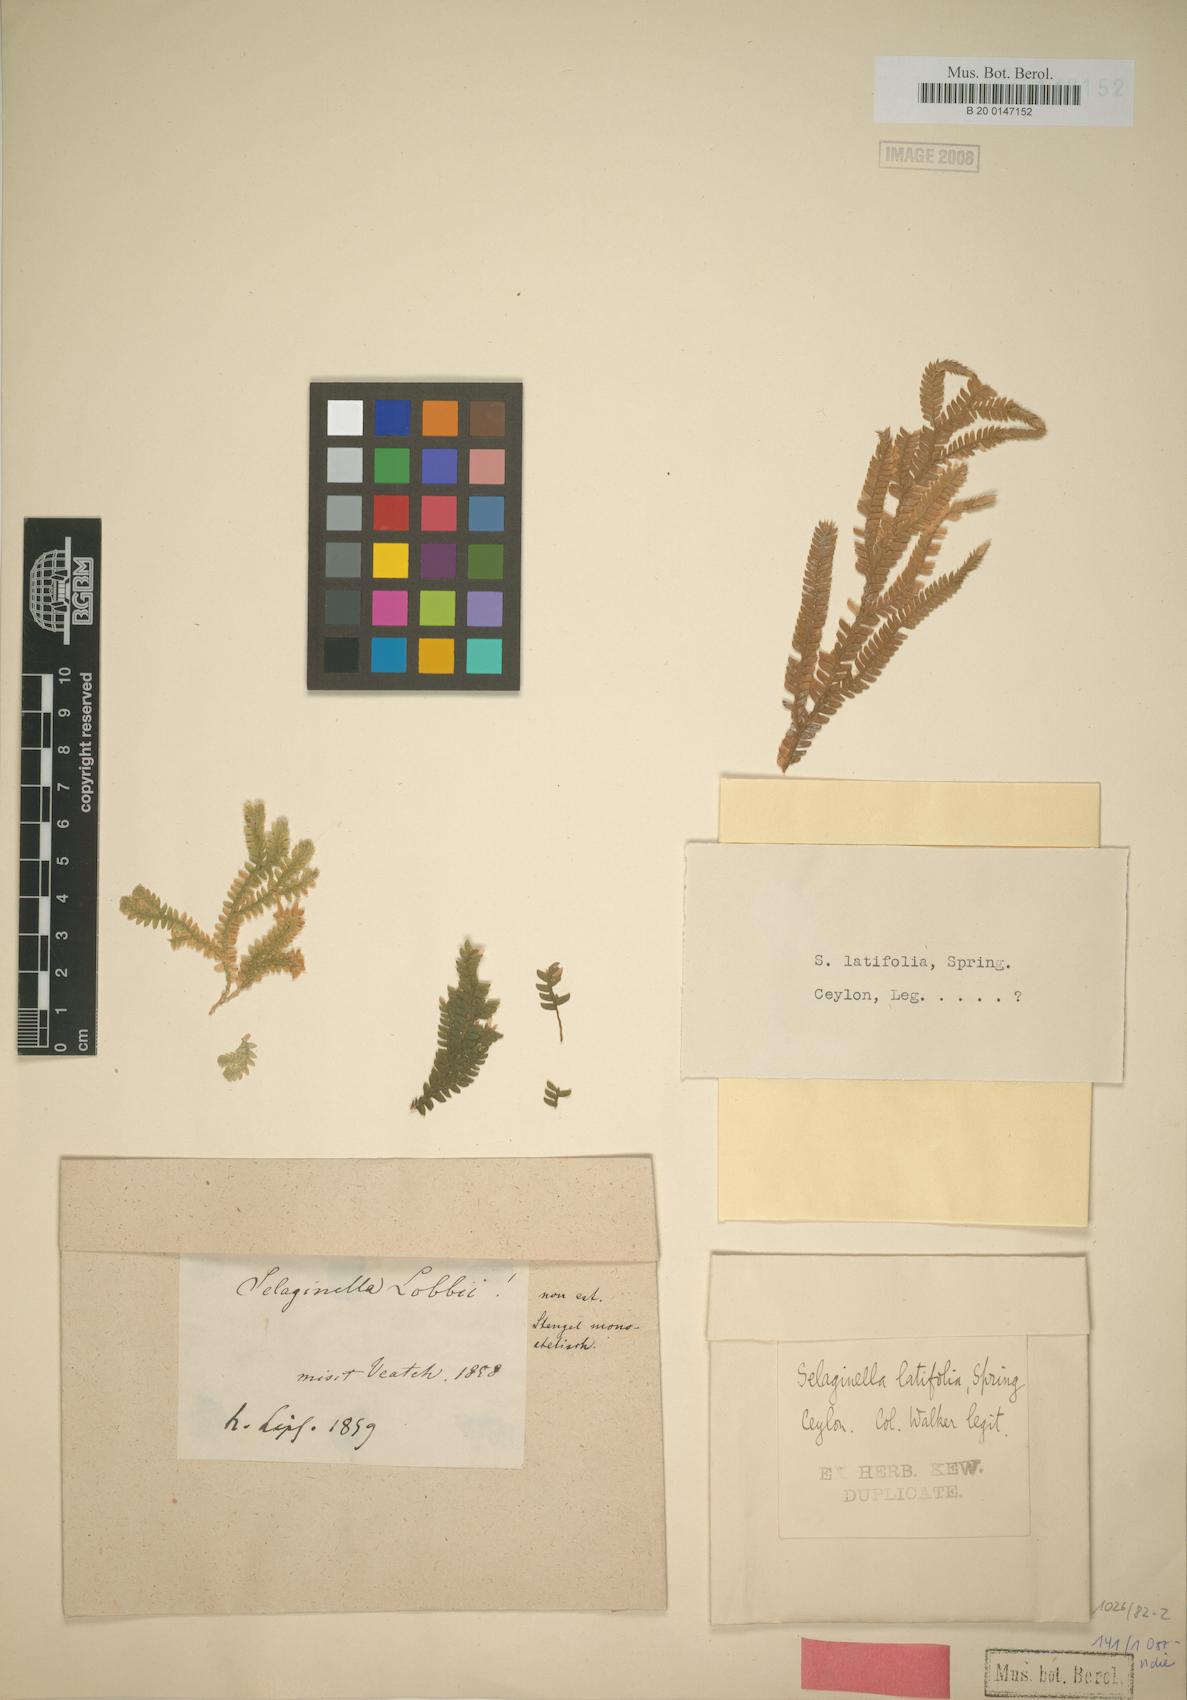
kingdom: Plantae
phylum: Tracheophyta
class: Lycopodiopsida
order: Selaginellales
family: Selaginellaceae
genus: Selaginella
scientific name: Selaginella latifolia
